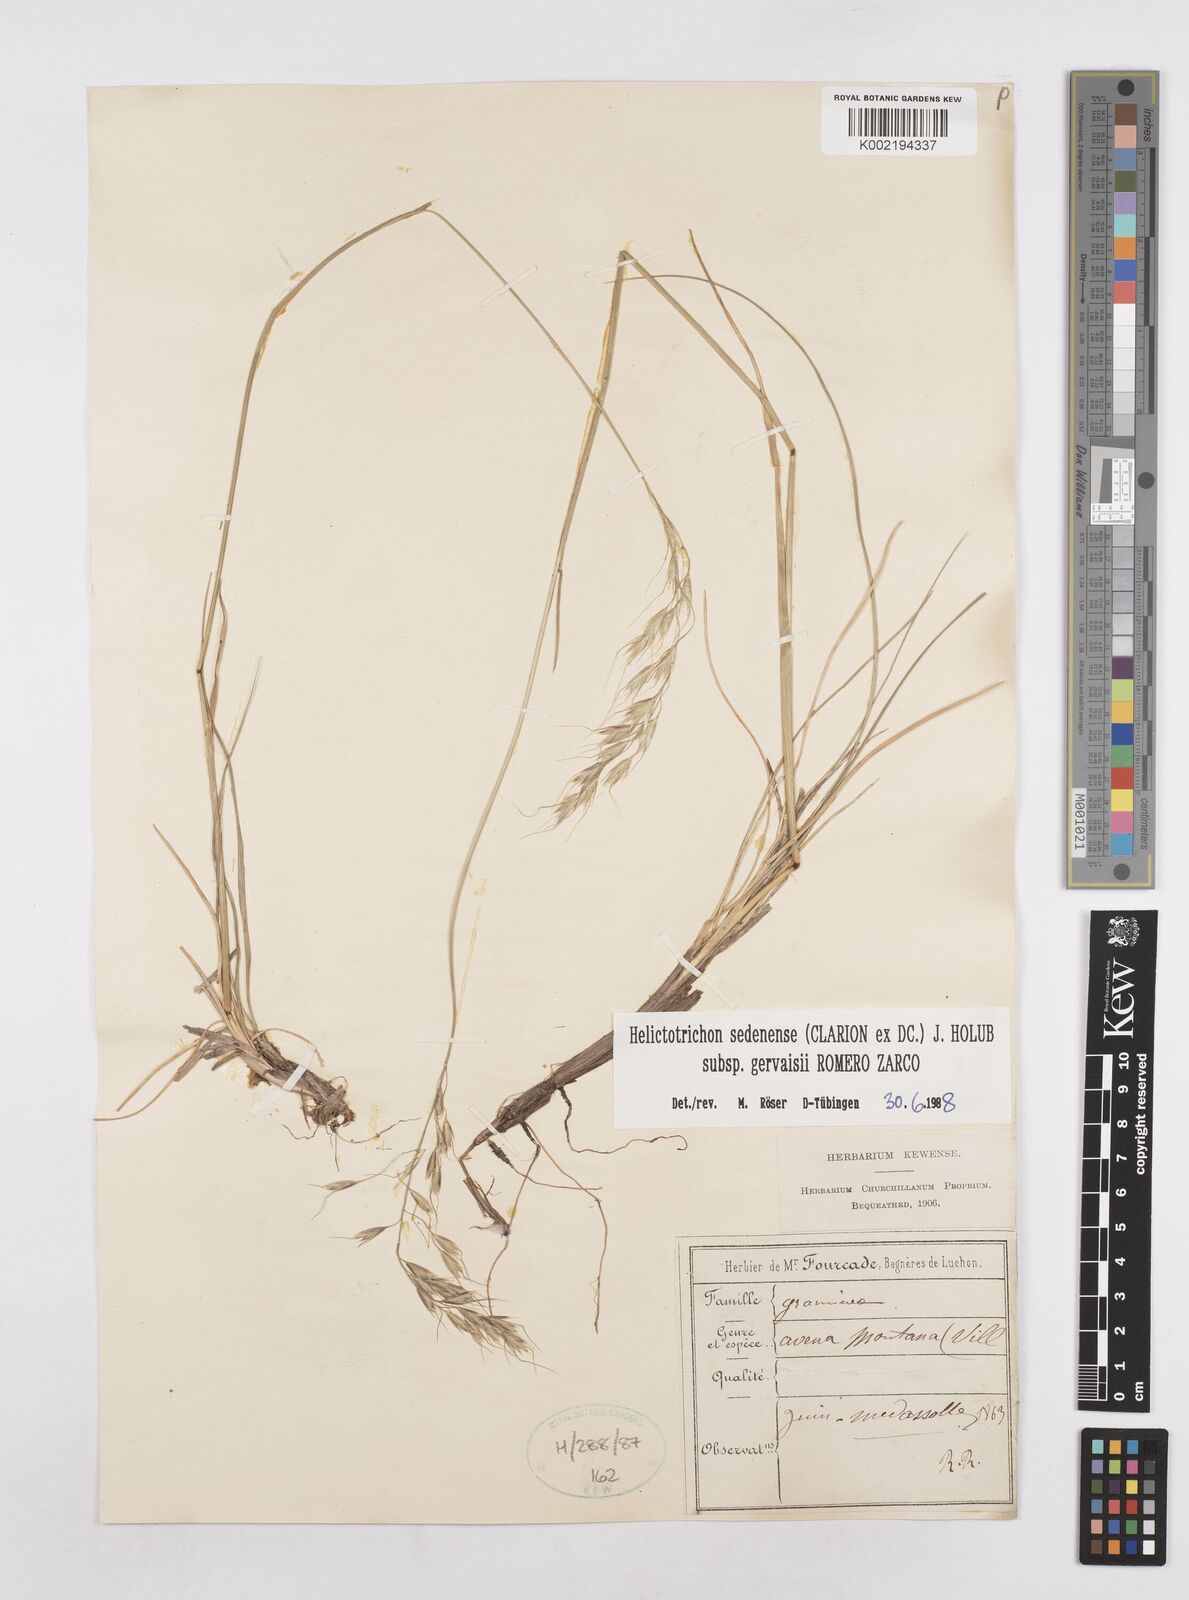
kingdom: Plantae
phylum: Tracheophyta
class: Liliopsida
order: Poales
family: Poaceae
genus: Helictotrichon
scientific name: Helictotrichon sedenense
